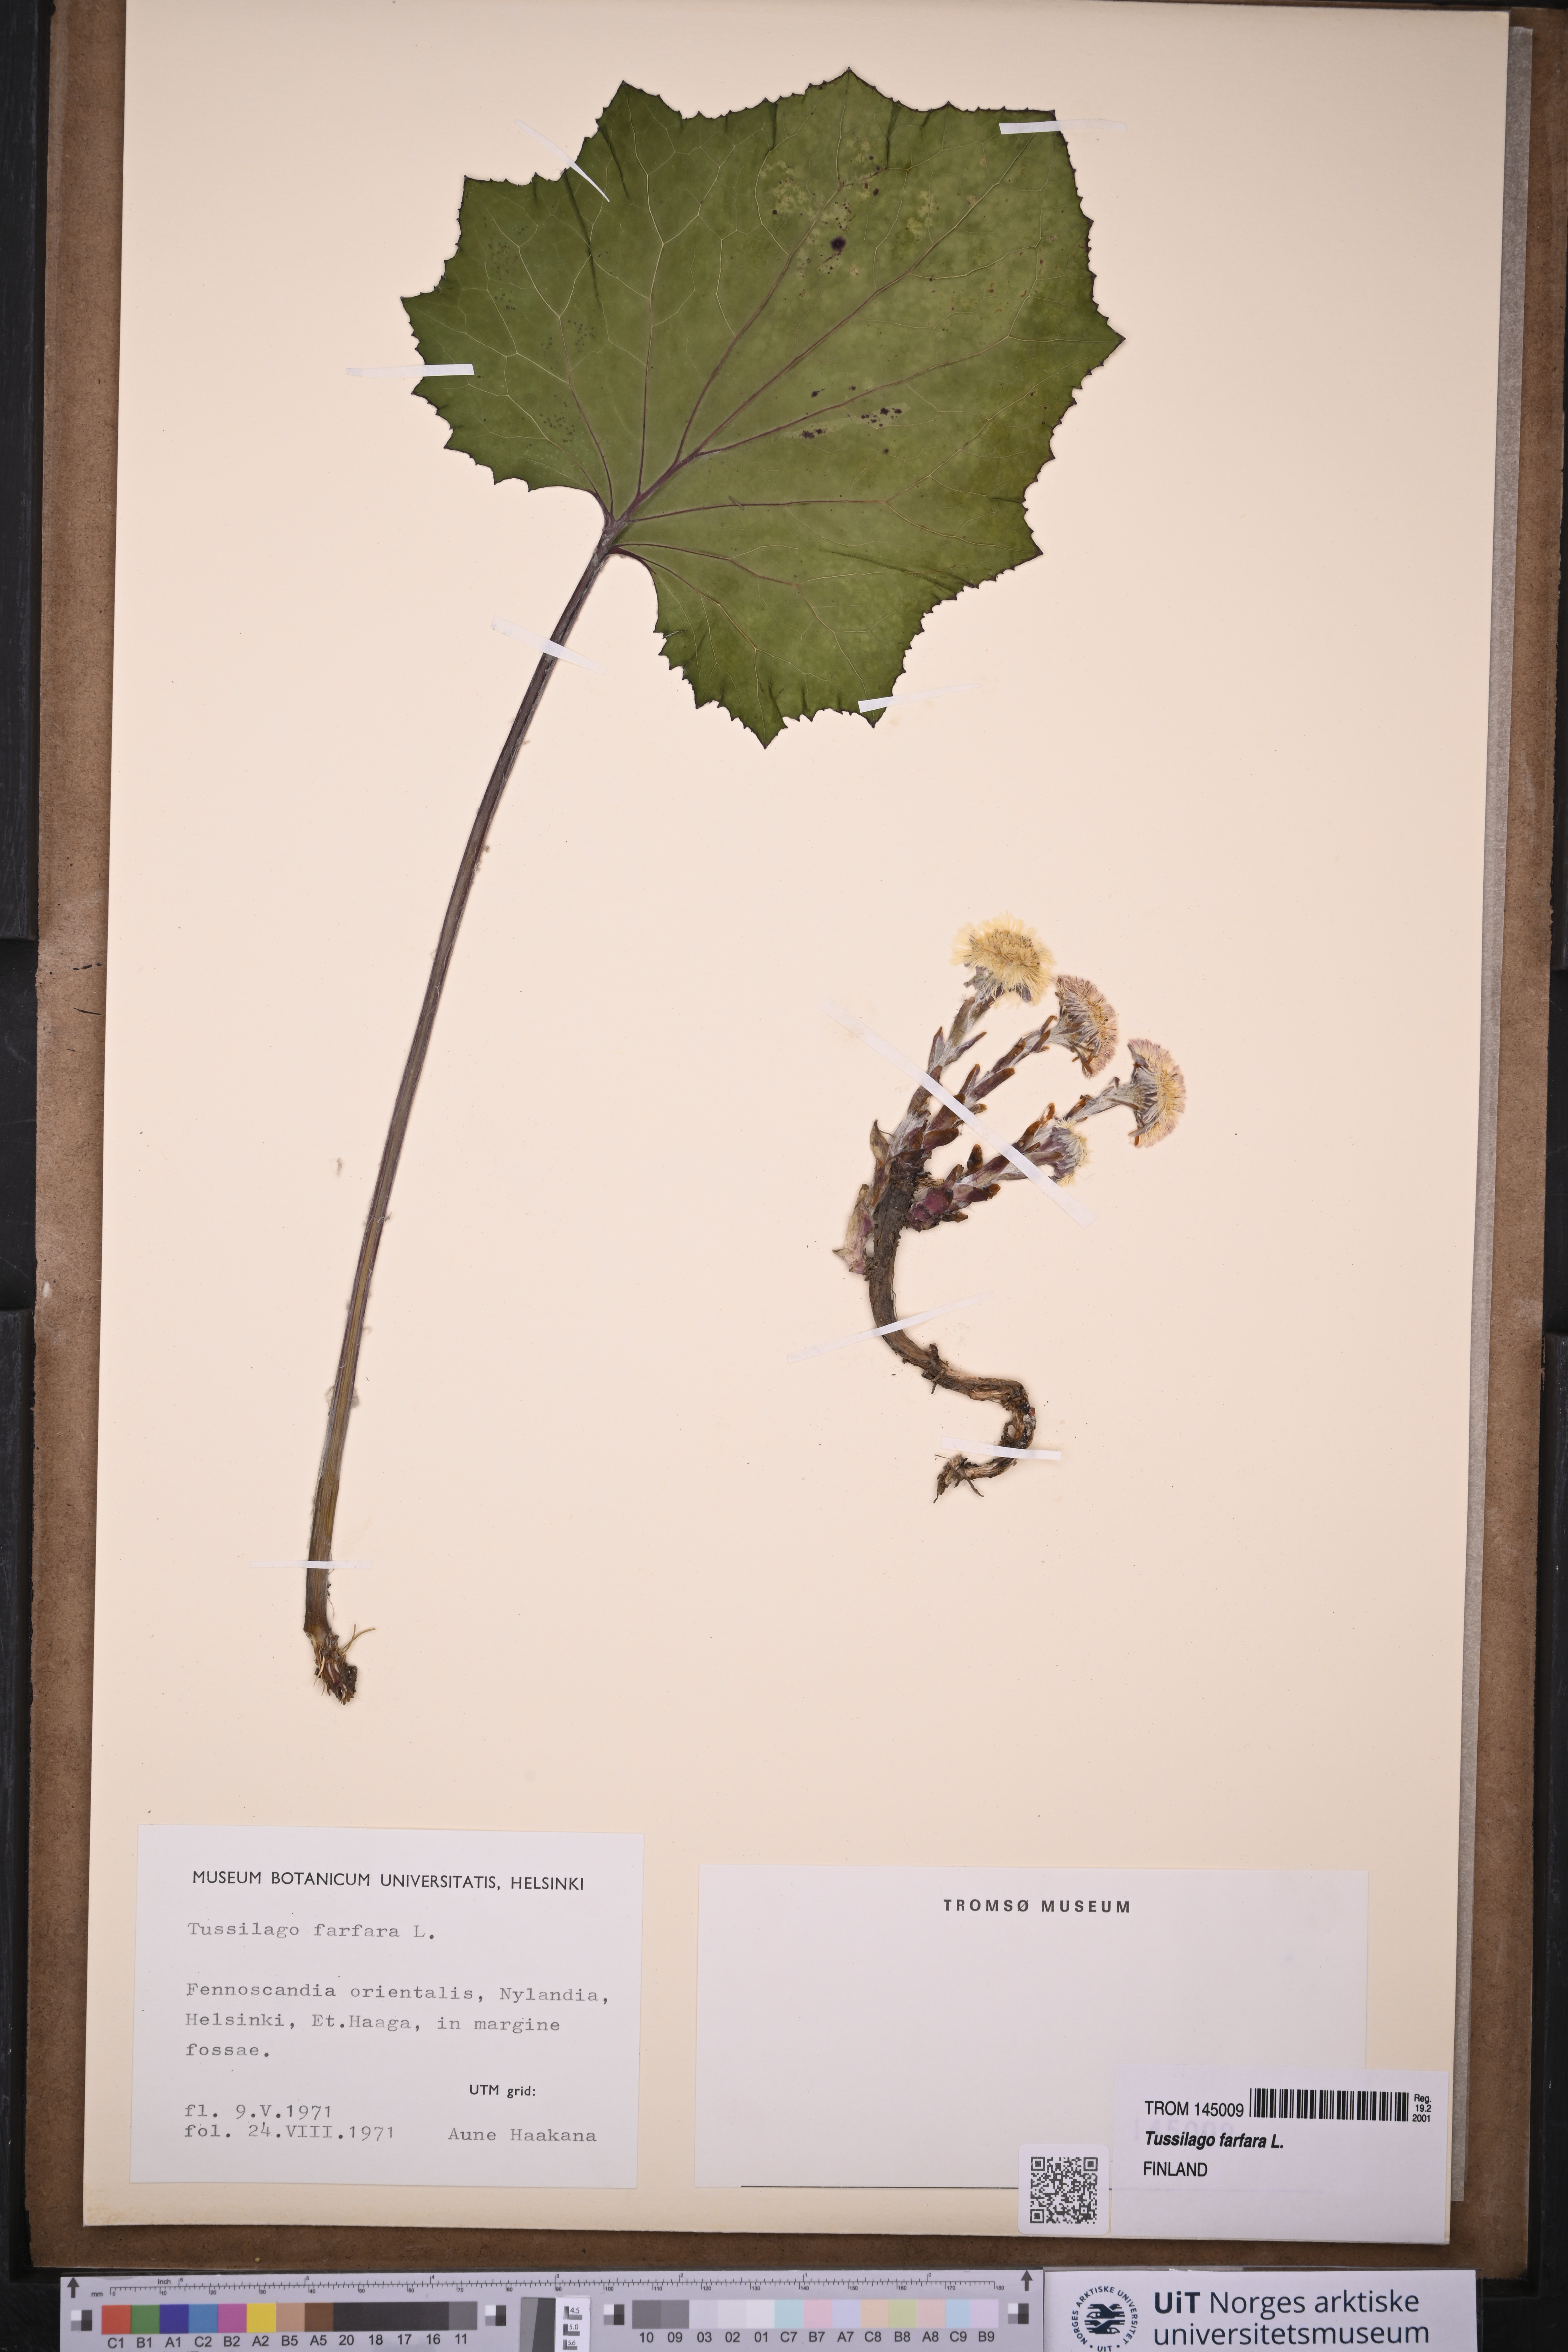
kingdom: Plantae
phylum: Tracheophyta
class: Magnoliopsida
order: Asterales
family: Asteraceae
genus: Tussilago
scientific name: Tussilago farfara
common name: Coltsfoot
